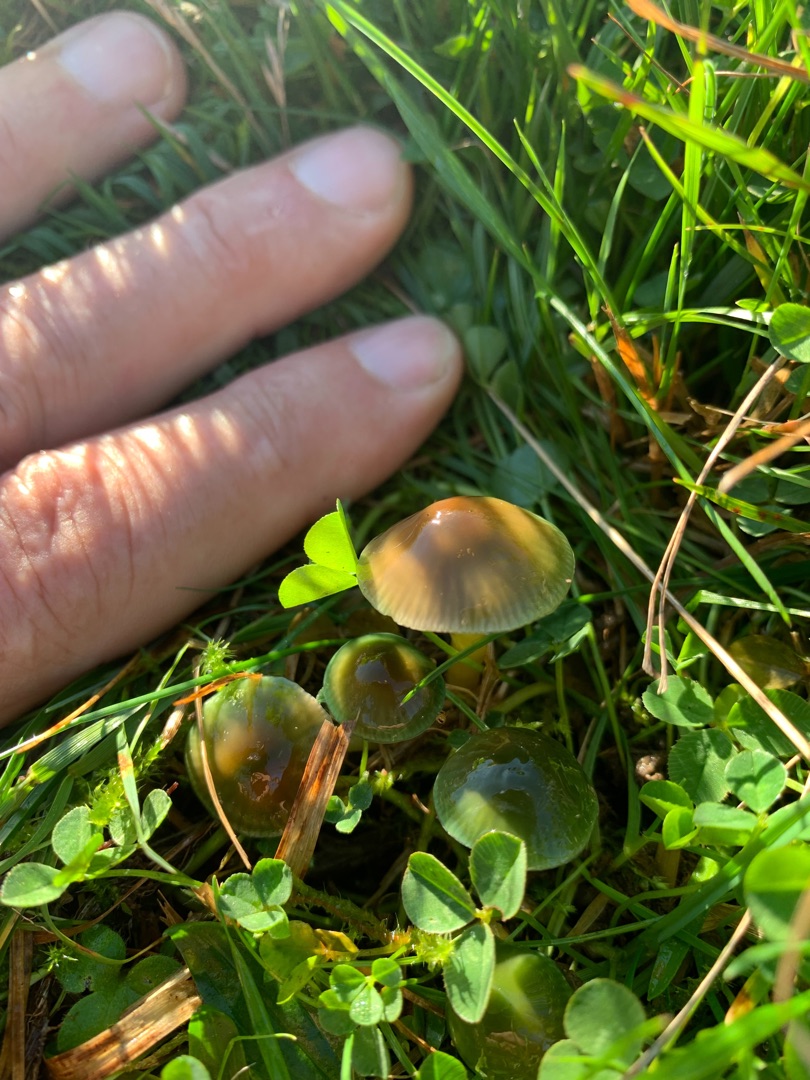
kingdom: Fungi
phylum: Basidiomycota
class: Agaricomycetes
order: Agaricales
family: Hygrophoraceae
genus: Gliophorus
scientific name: Gliophorus psittacinus
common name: Papegøje-vokshat
